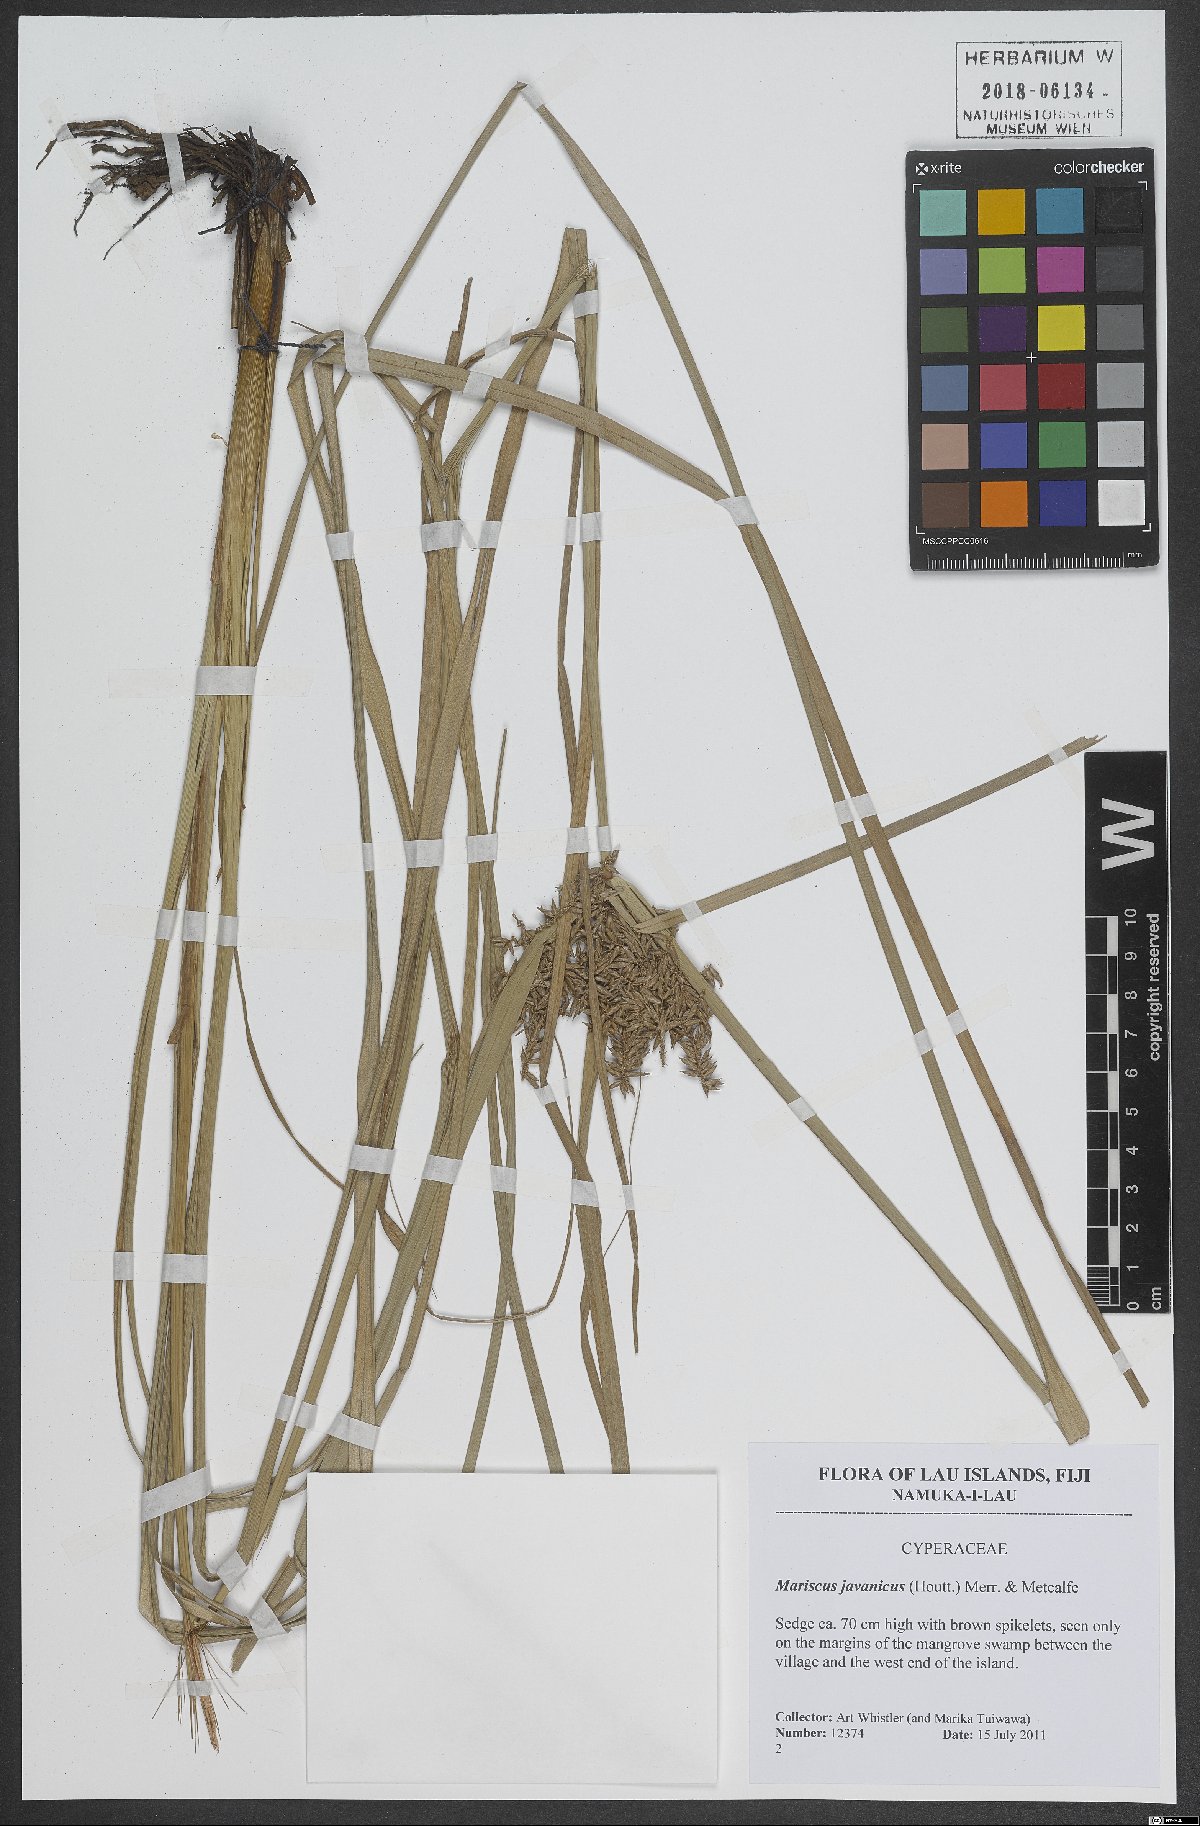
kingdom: Plantae
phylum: Tracheophyta
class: Liliopsida
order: Poales
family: Cyperaceae
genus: Cyperus
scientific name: Cyperus javanicus
